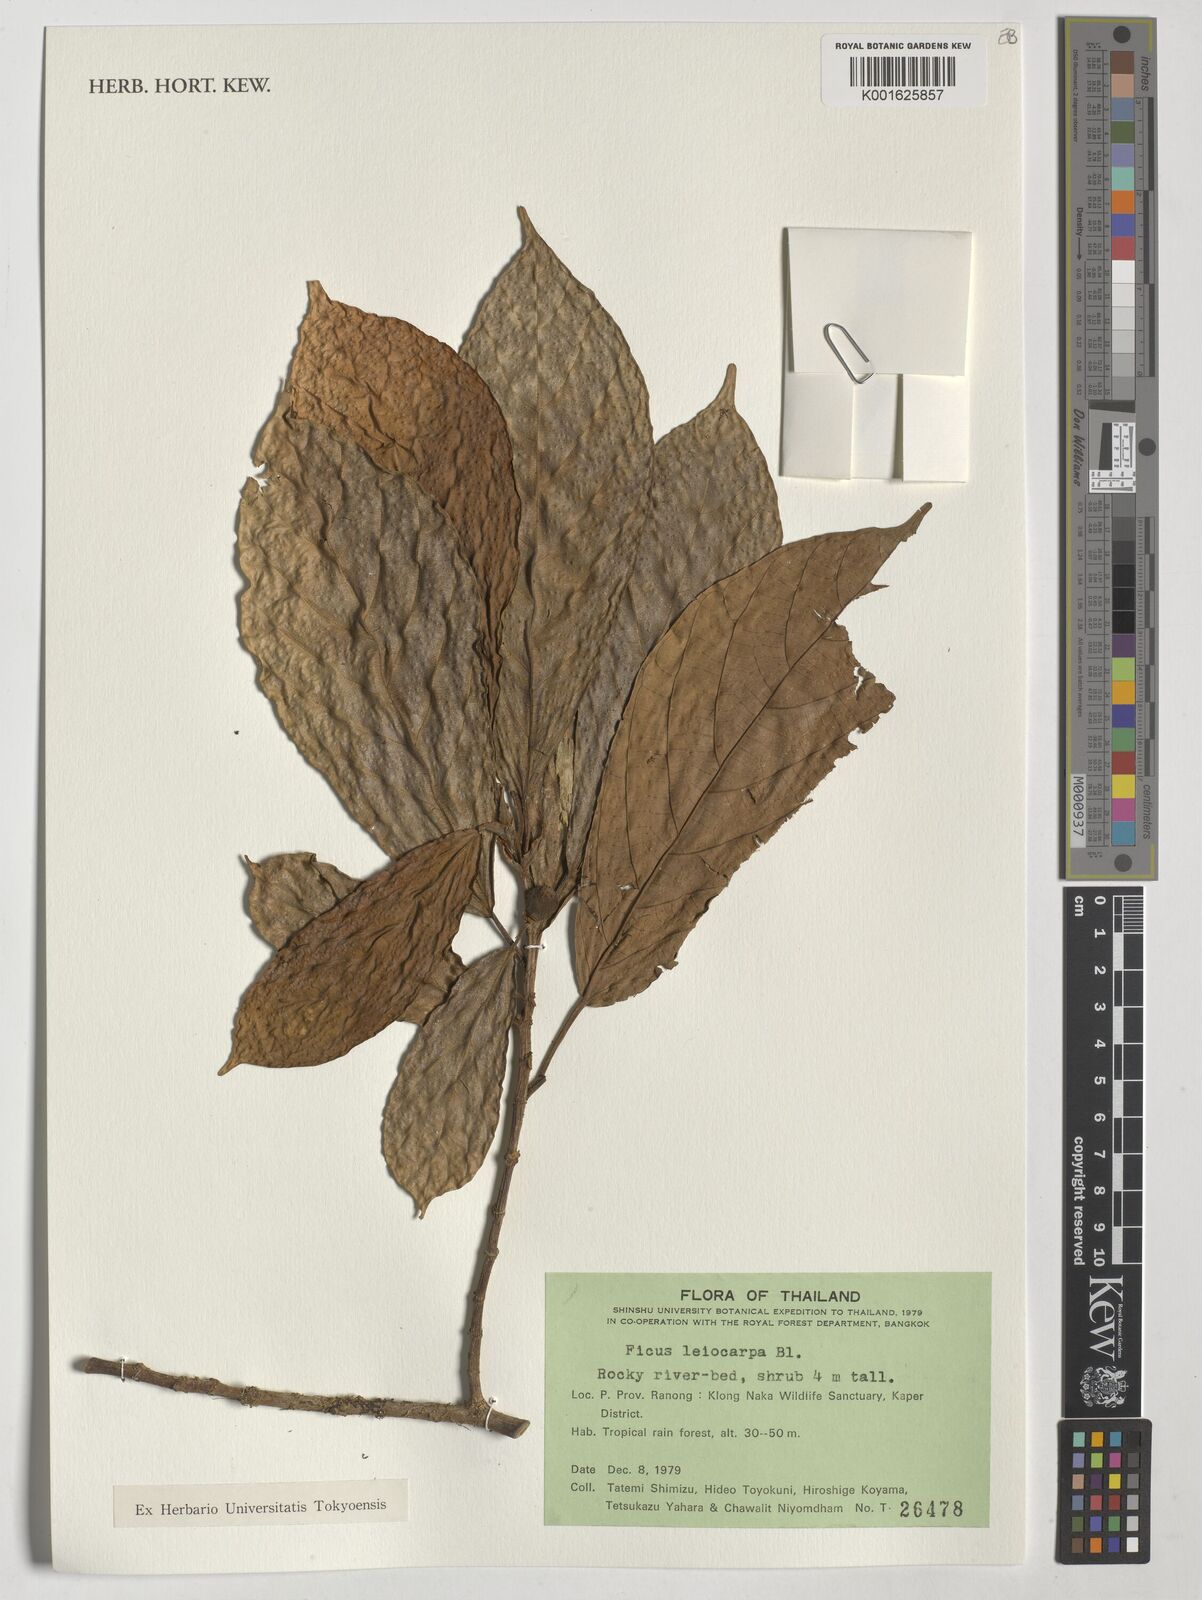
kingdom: Plantae
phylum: Tracheophyta
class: Magnoliopsida
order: Rosales
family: Moraceae
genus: Ficus
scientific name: Ficus leiocarpa
